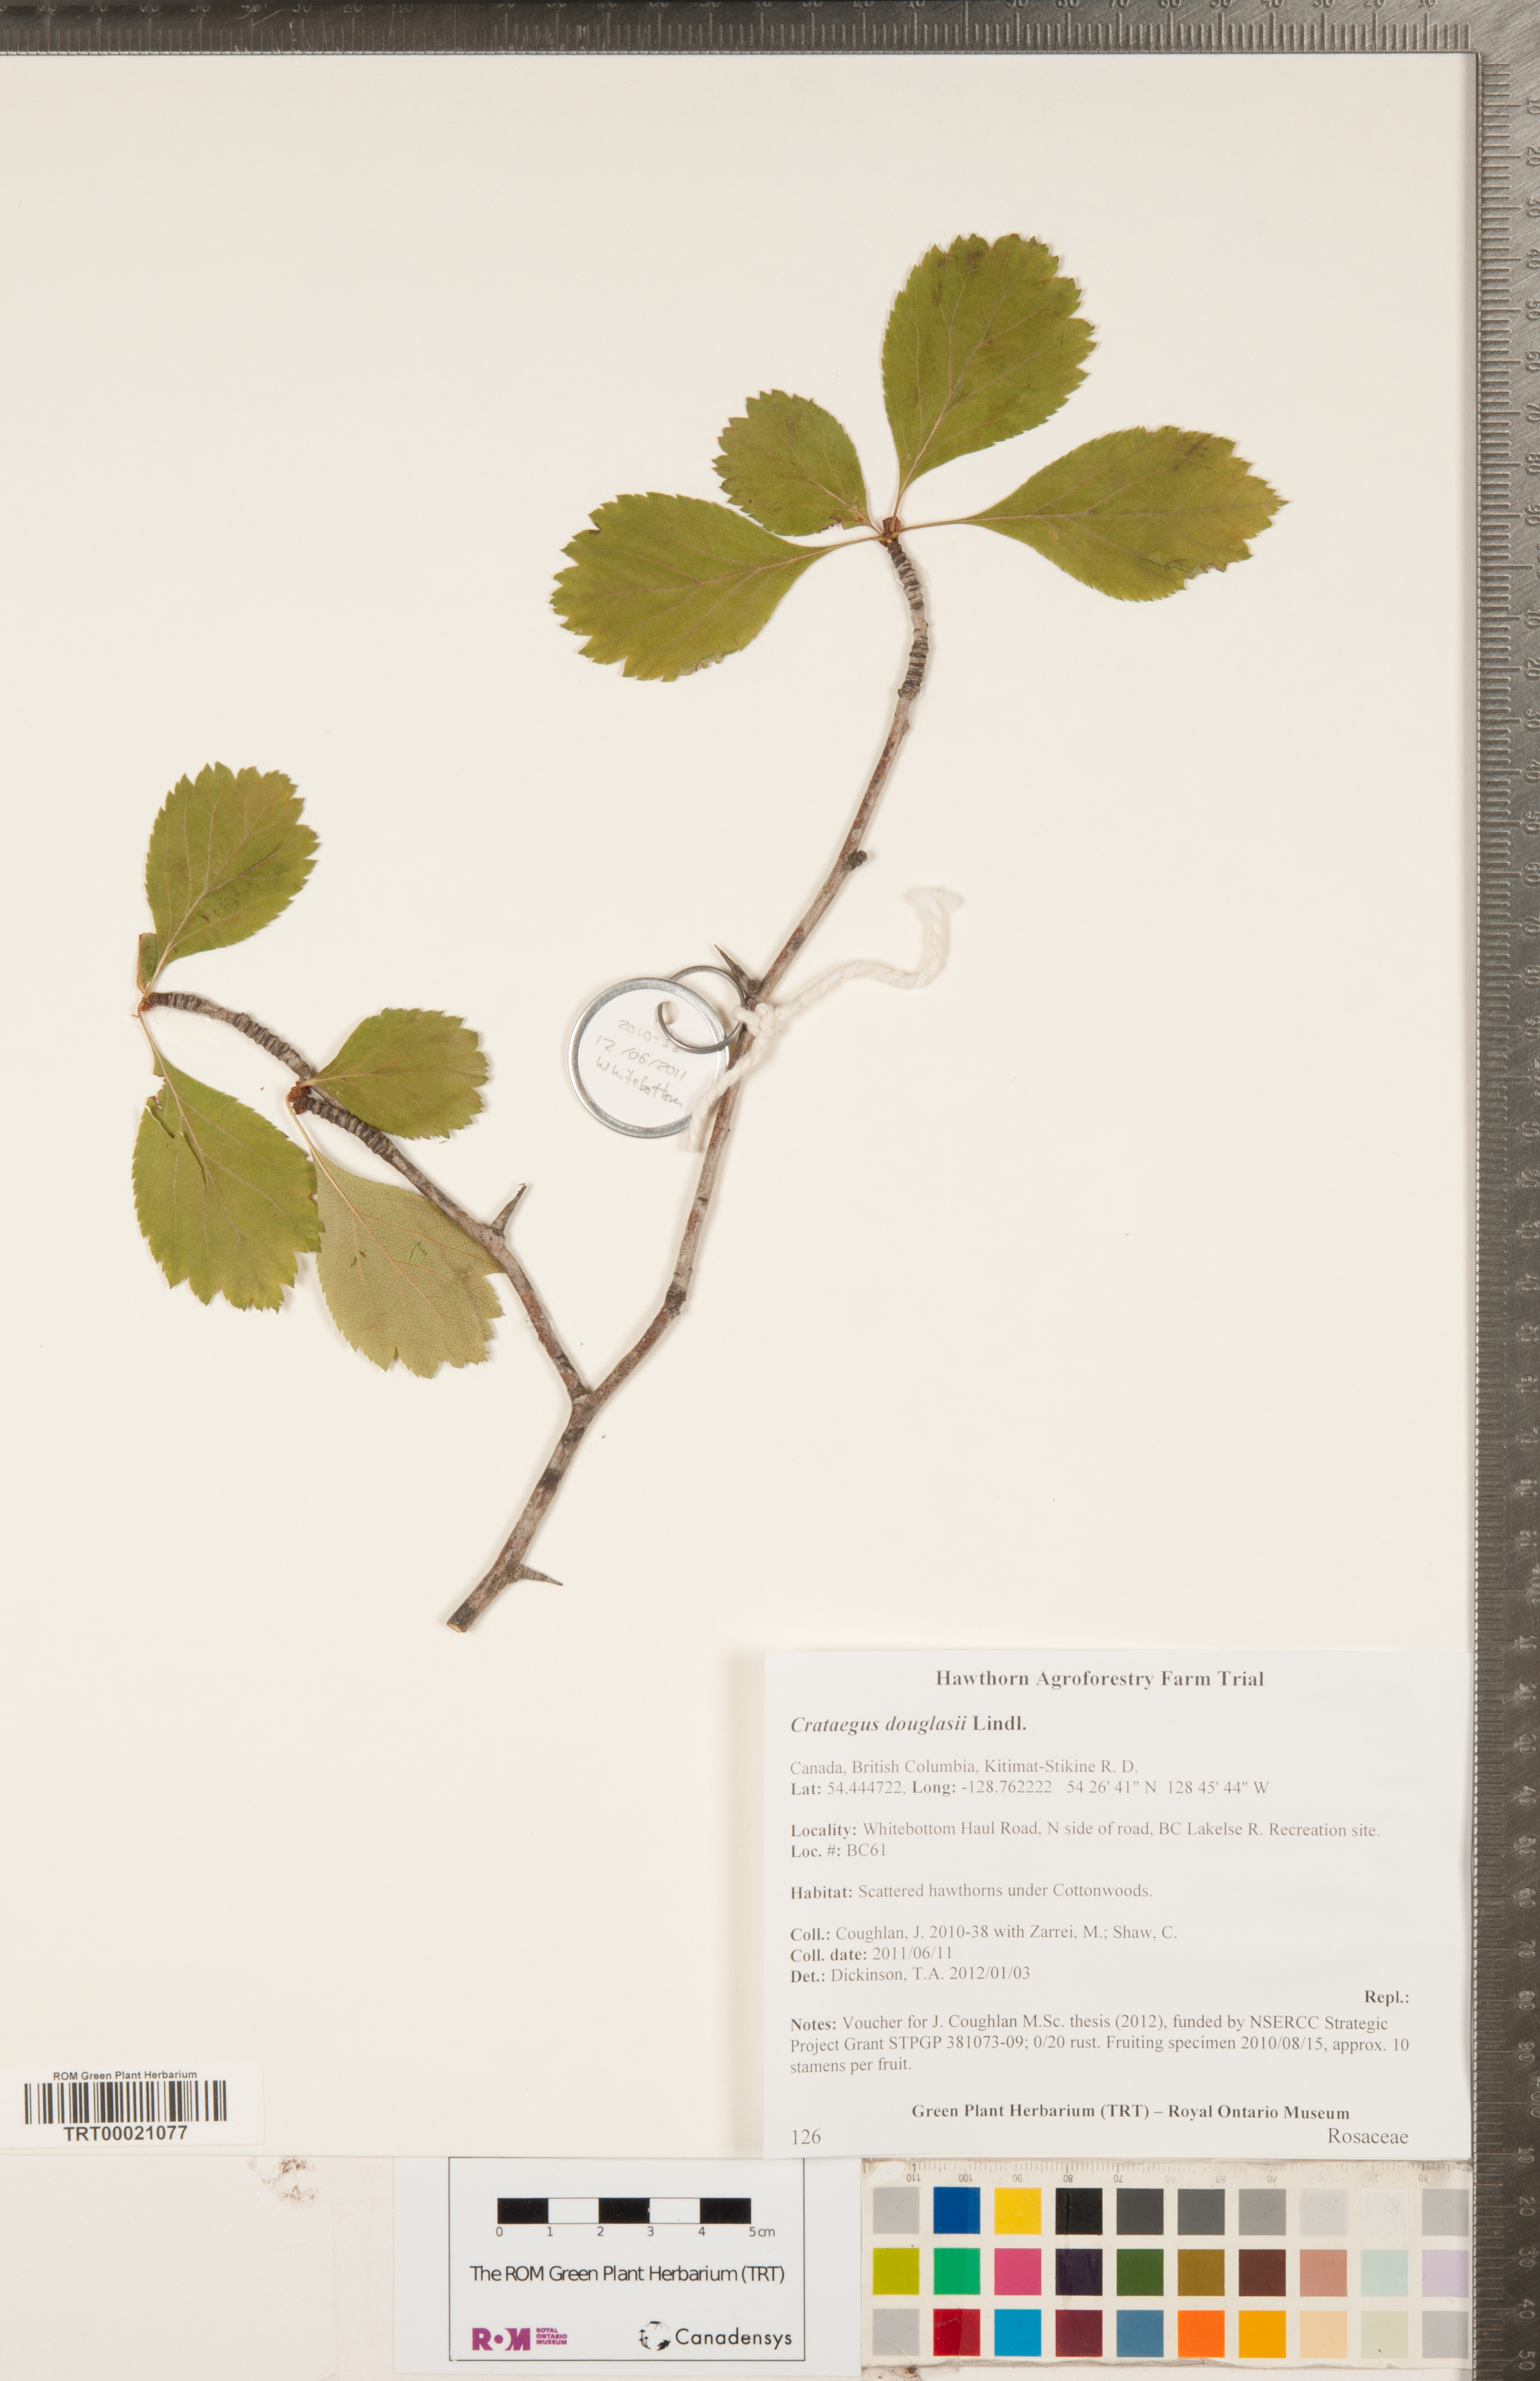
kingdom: Plantae
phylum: Tracheophyta
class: Magnoliopsida
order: Rosales
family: Rosaceae
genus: Crataegus
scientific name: Crataegus douglasii
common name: Black hawthorn
